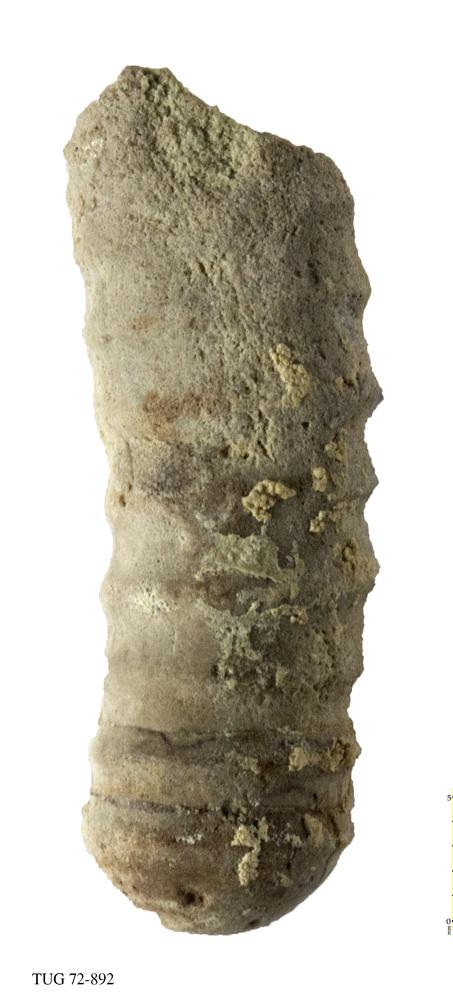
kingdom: Animalia
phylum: Mollusca
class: Cephalopoda
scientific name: Cephalopoda
